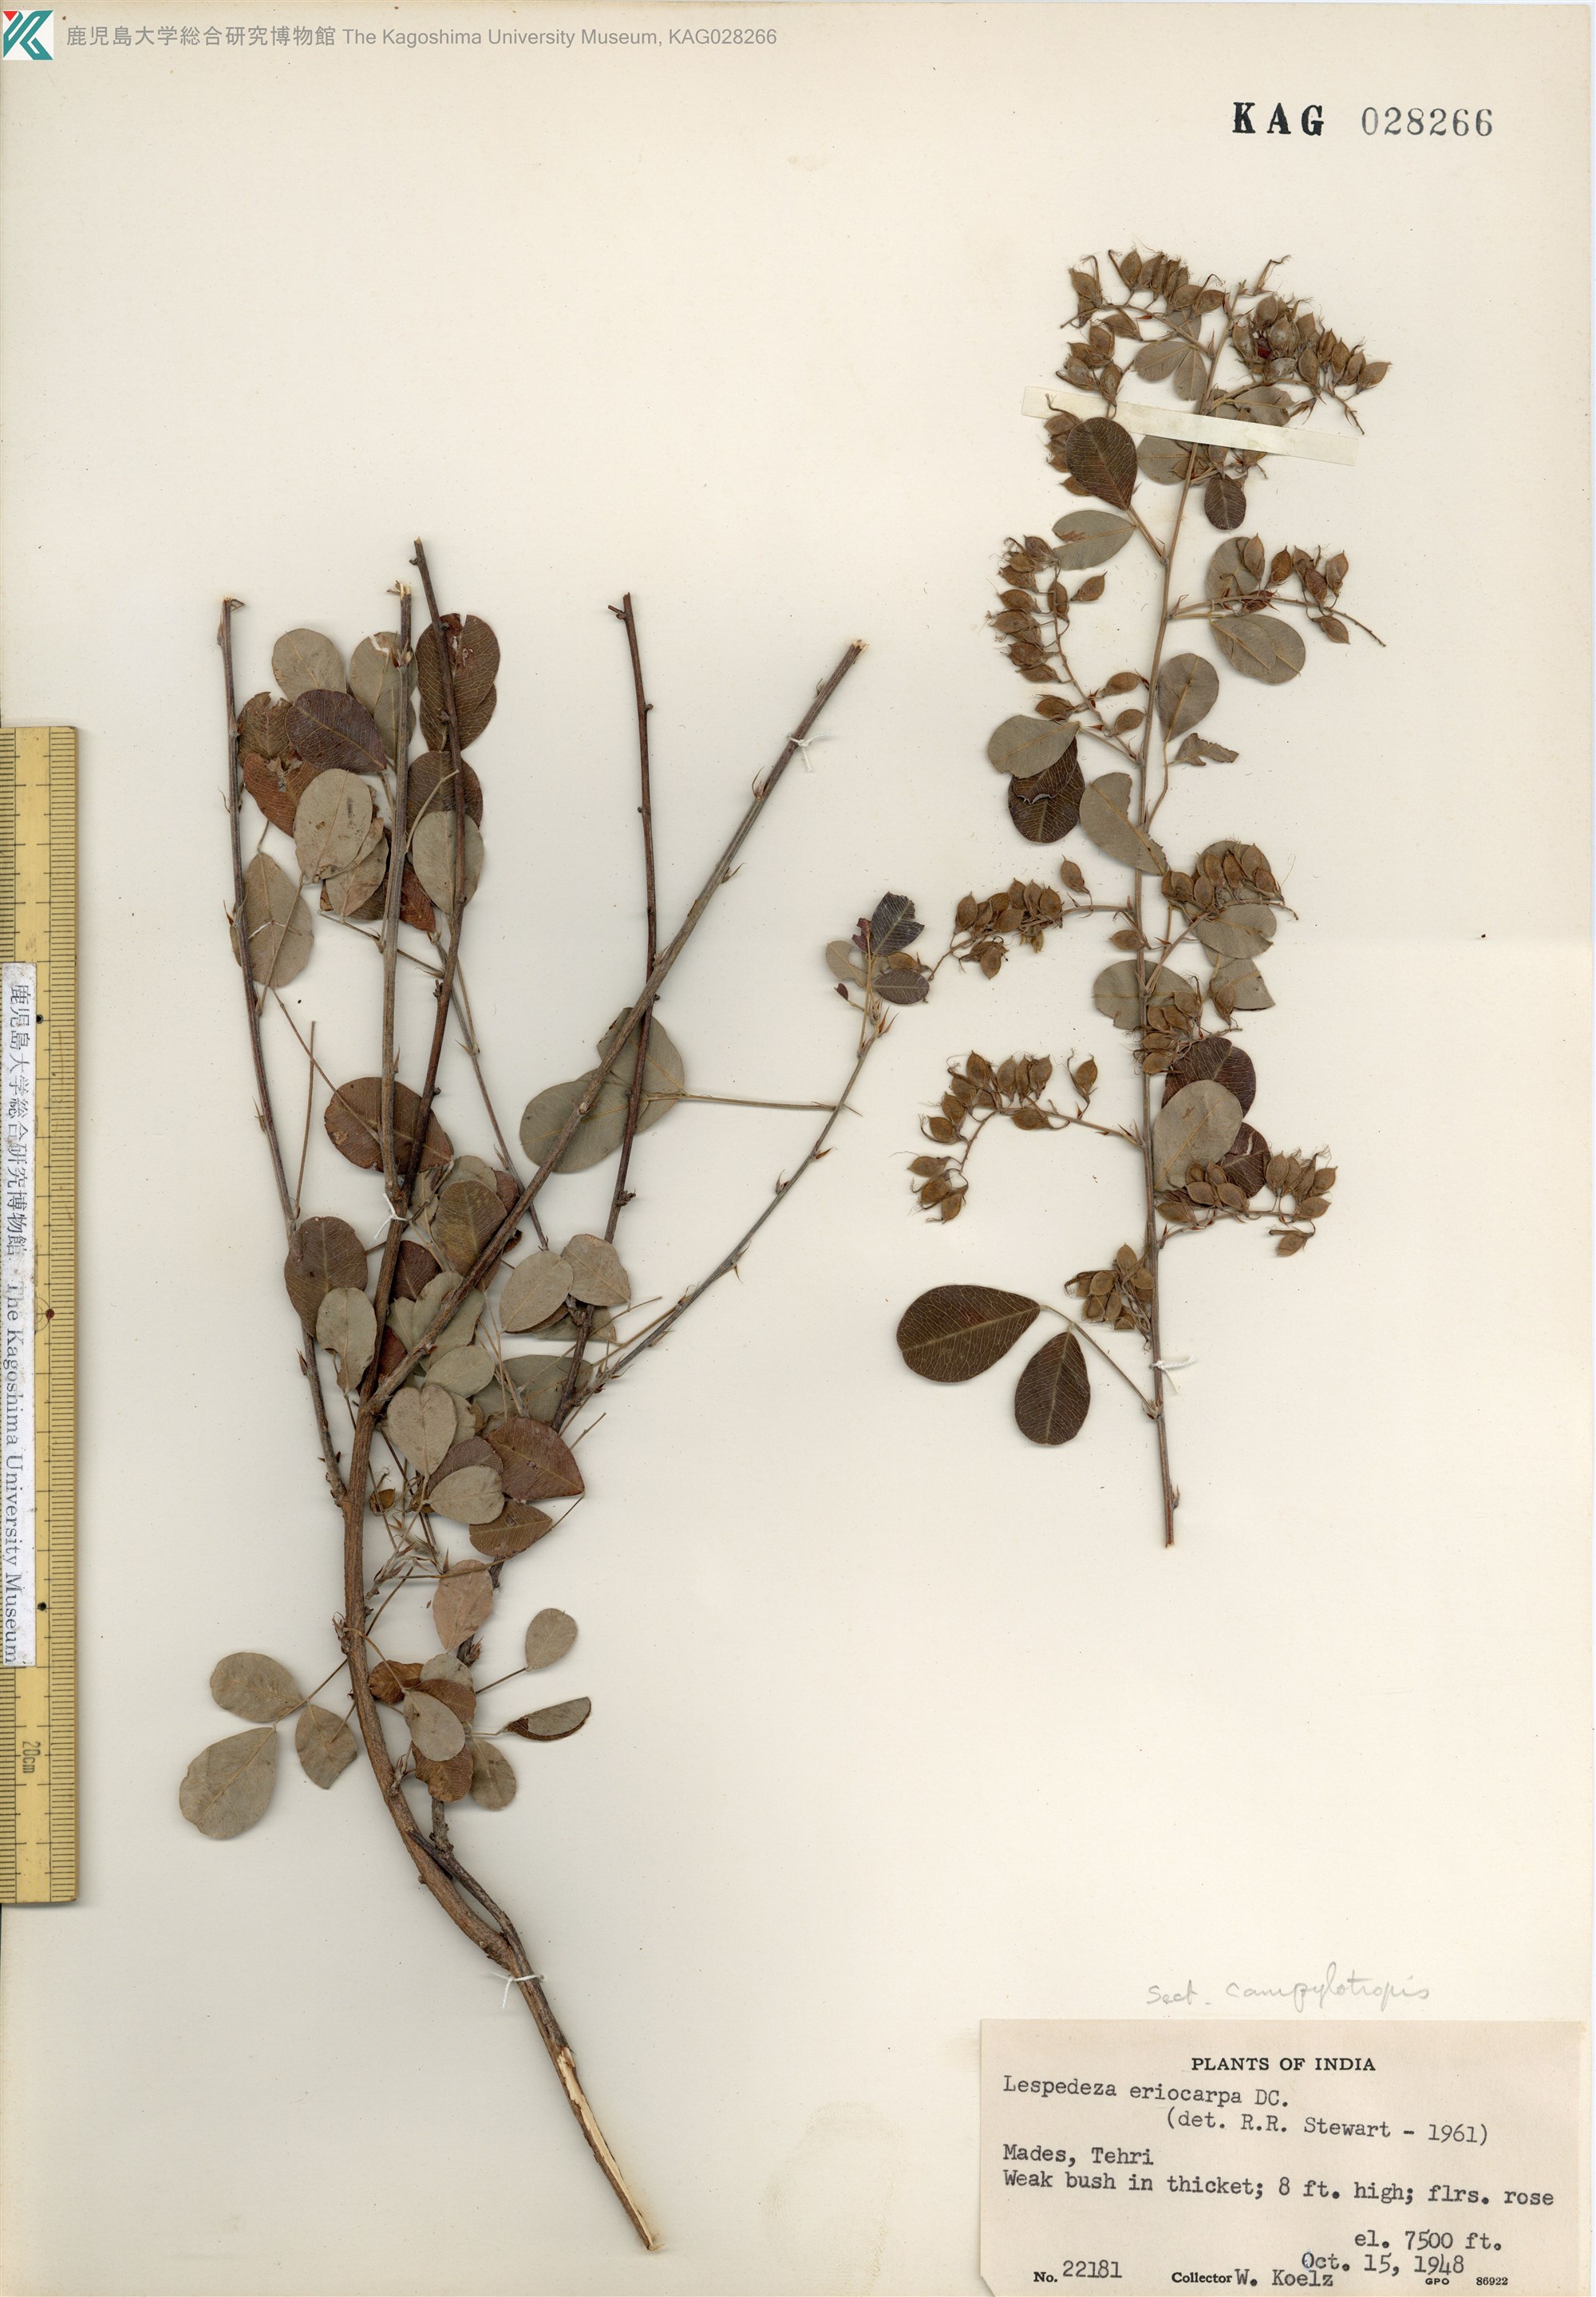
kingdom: Plantae
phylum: Tracheophyta
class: Magnoliopsida
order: Fabales
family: Fabaceae
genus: Campylotropis
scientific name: Campylotropis speciosa
